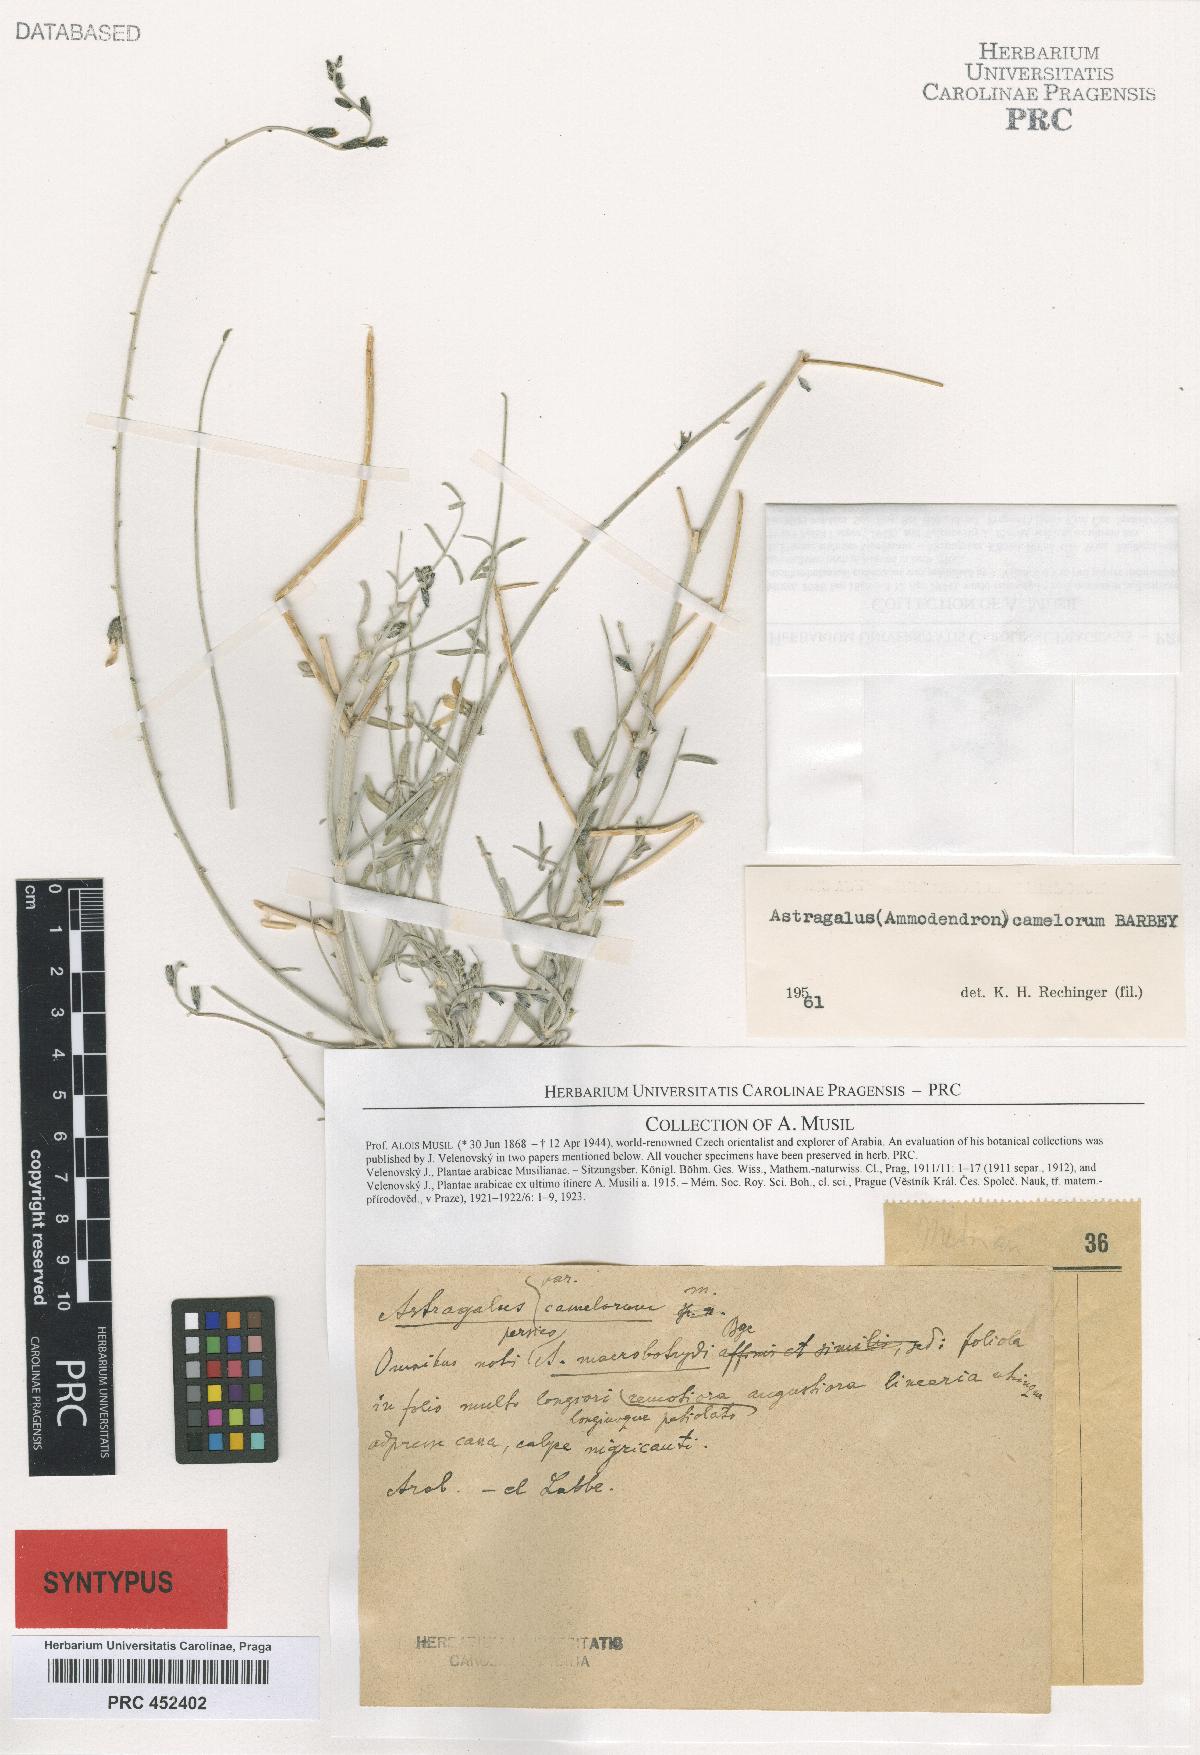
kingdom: Plantae
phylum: Tracheophyta
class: Magnoliopsida
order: Fabales
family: Fabaceae
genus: Astragalus
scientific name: Astragalus camelorum
